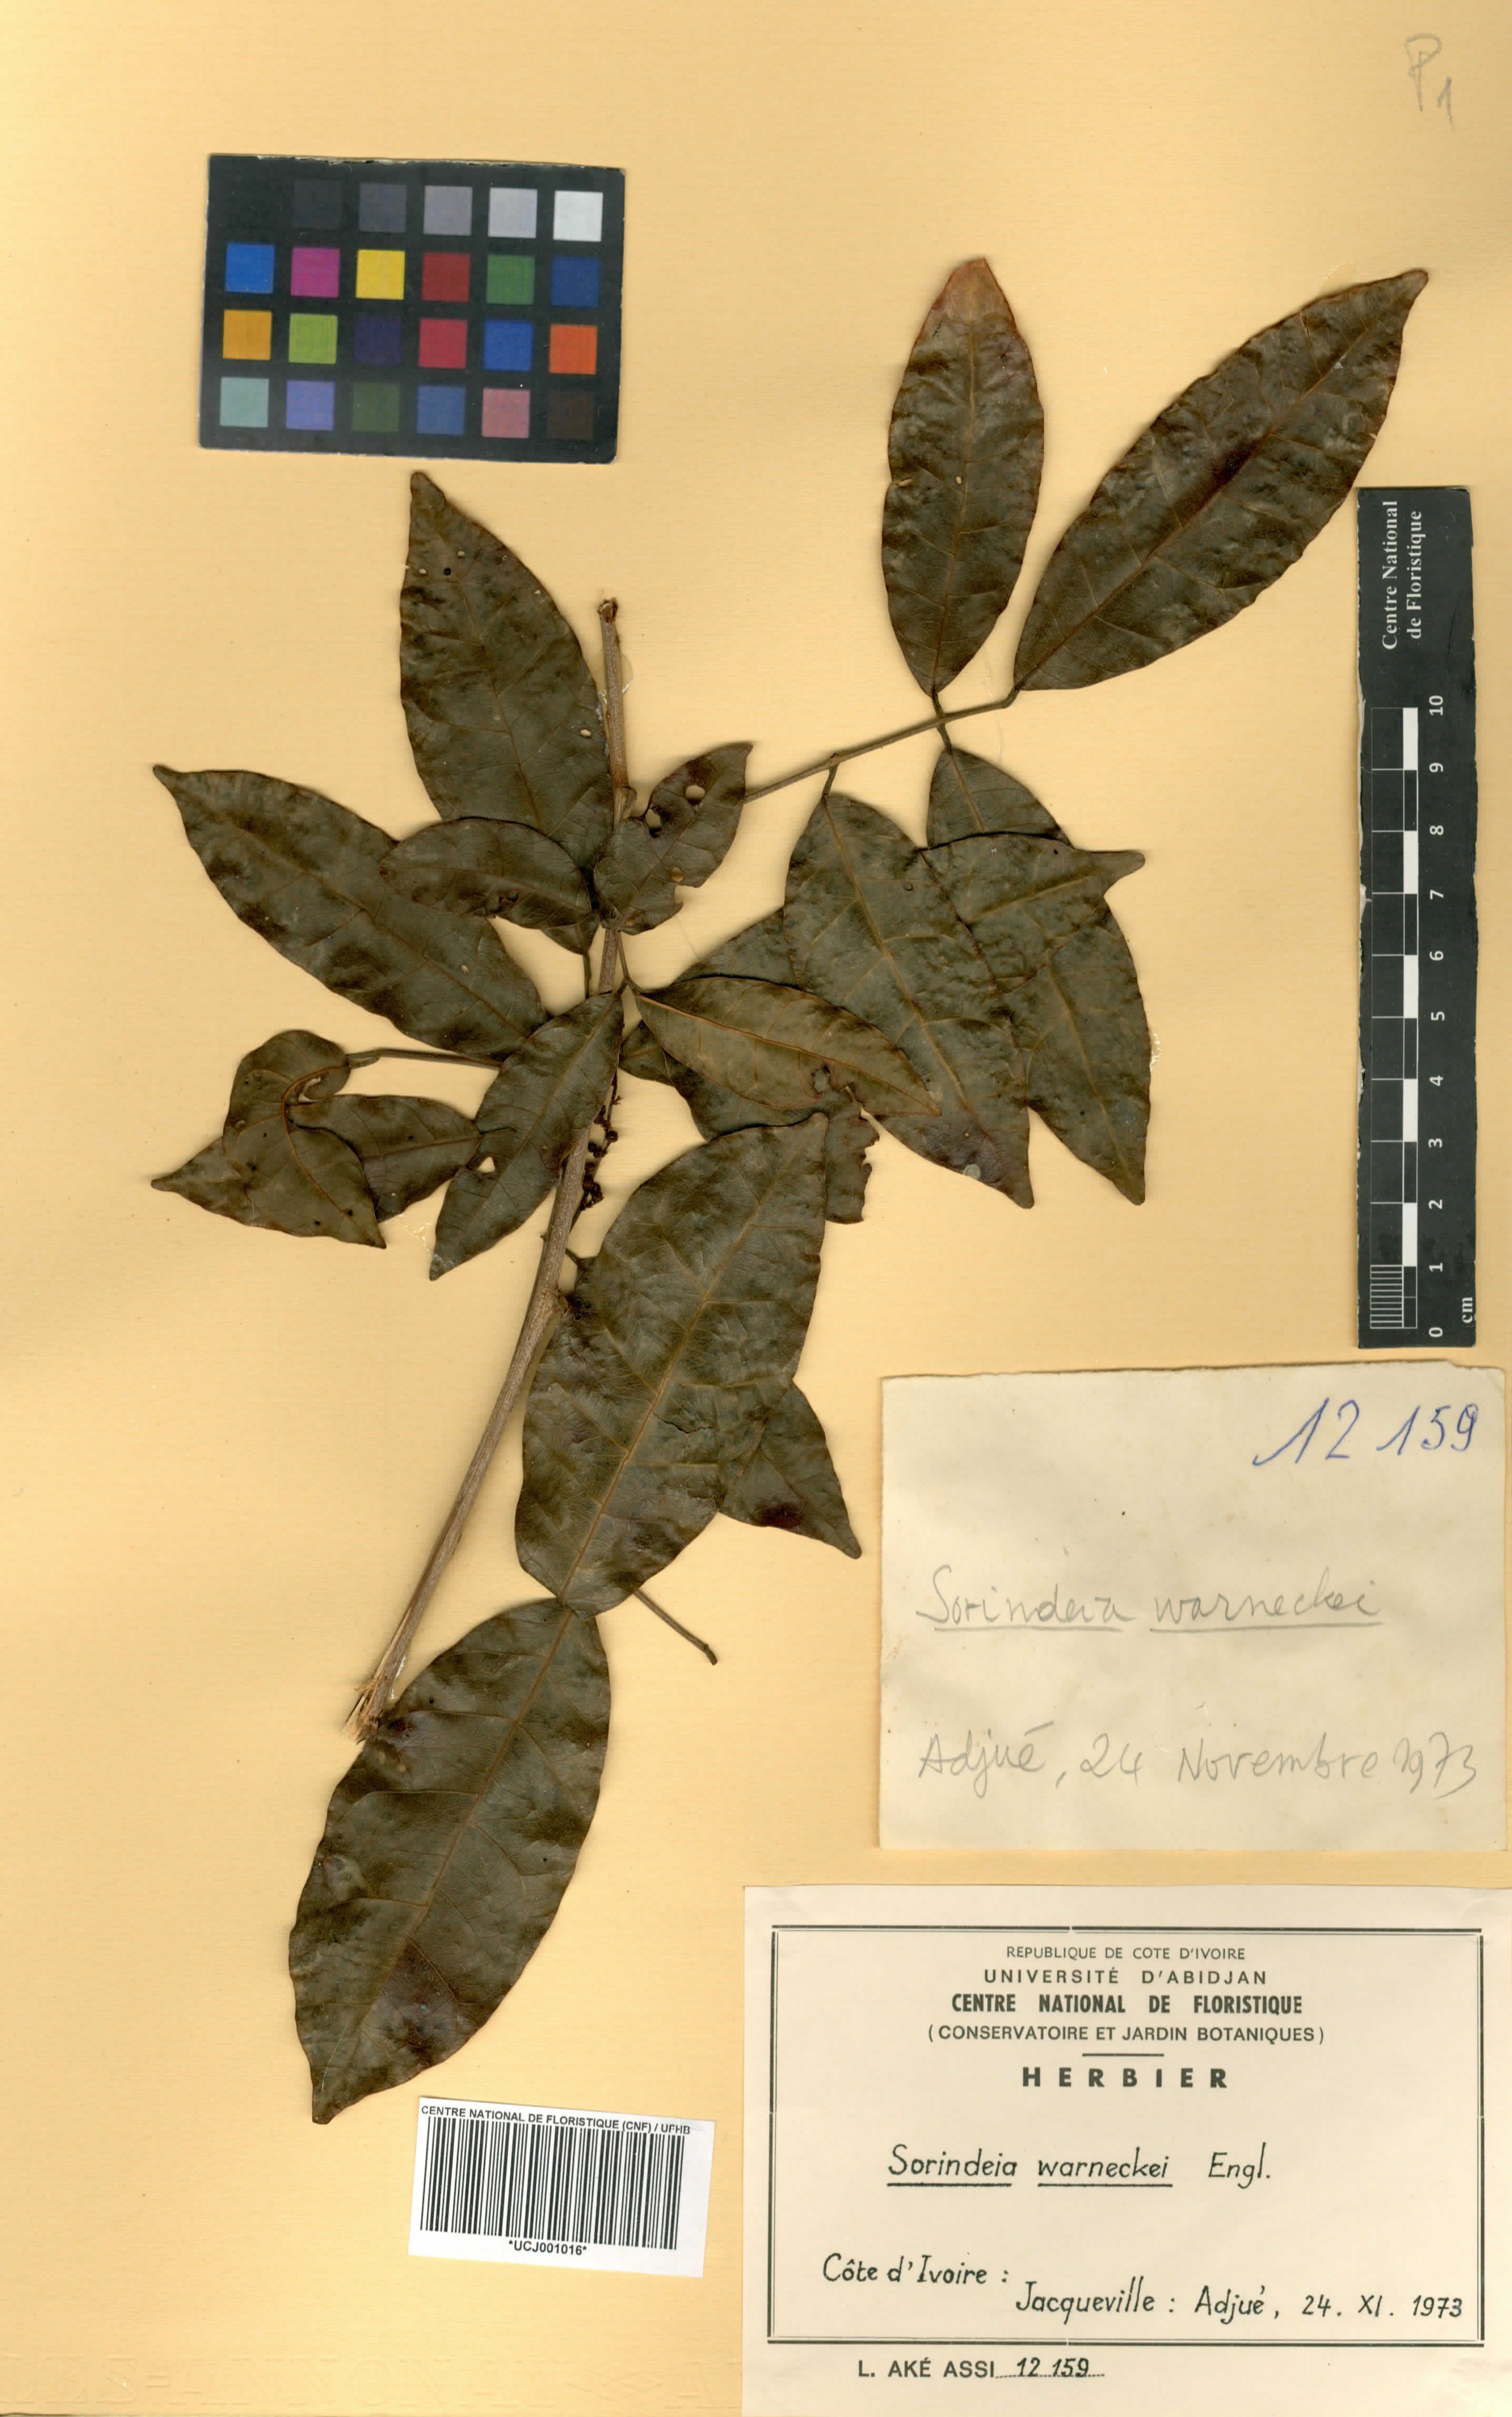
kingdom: Plantae
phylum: Tracheophyta
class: Magnoliopsida
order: Sapindales
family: Anacardiaceae
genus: Sorindeia
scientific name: Sorindeia grandifolia
